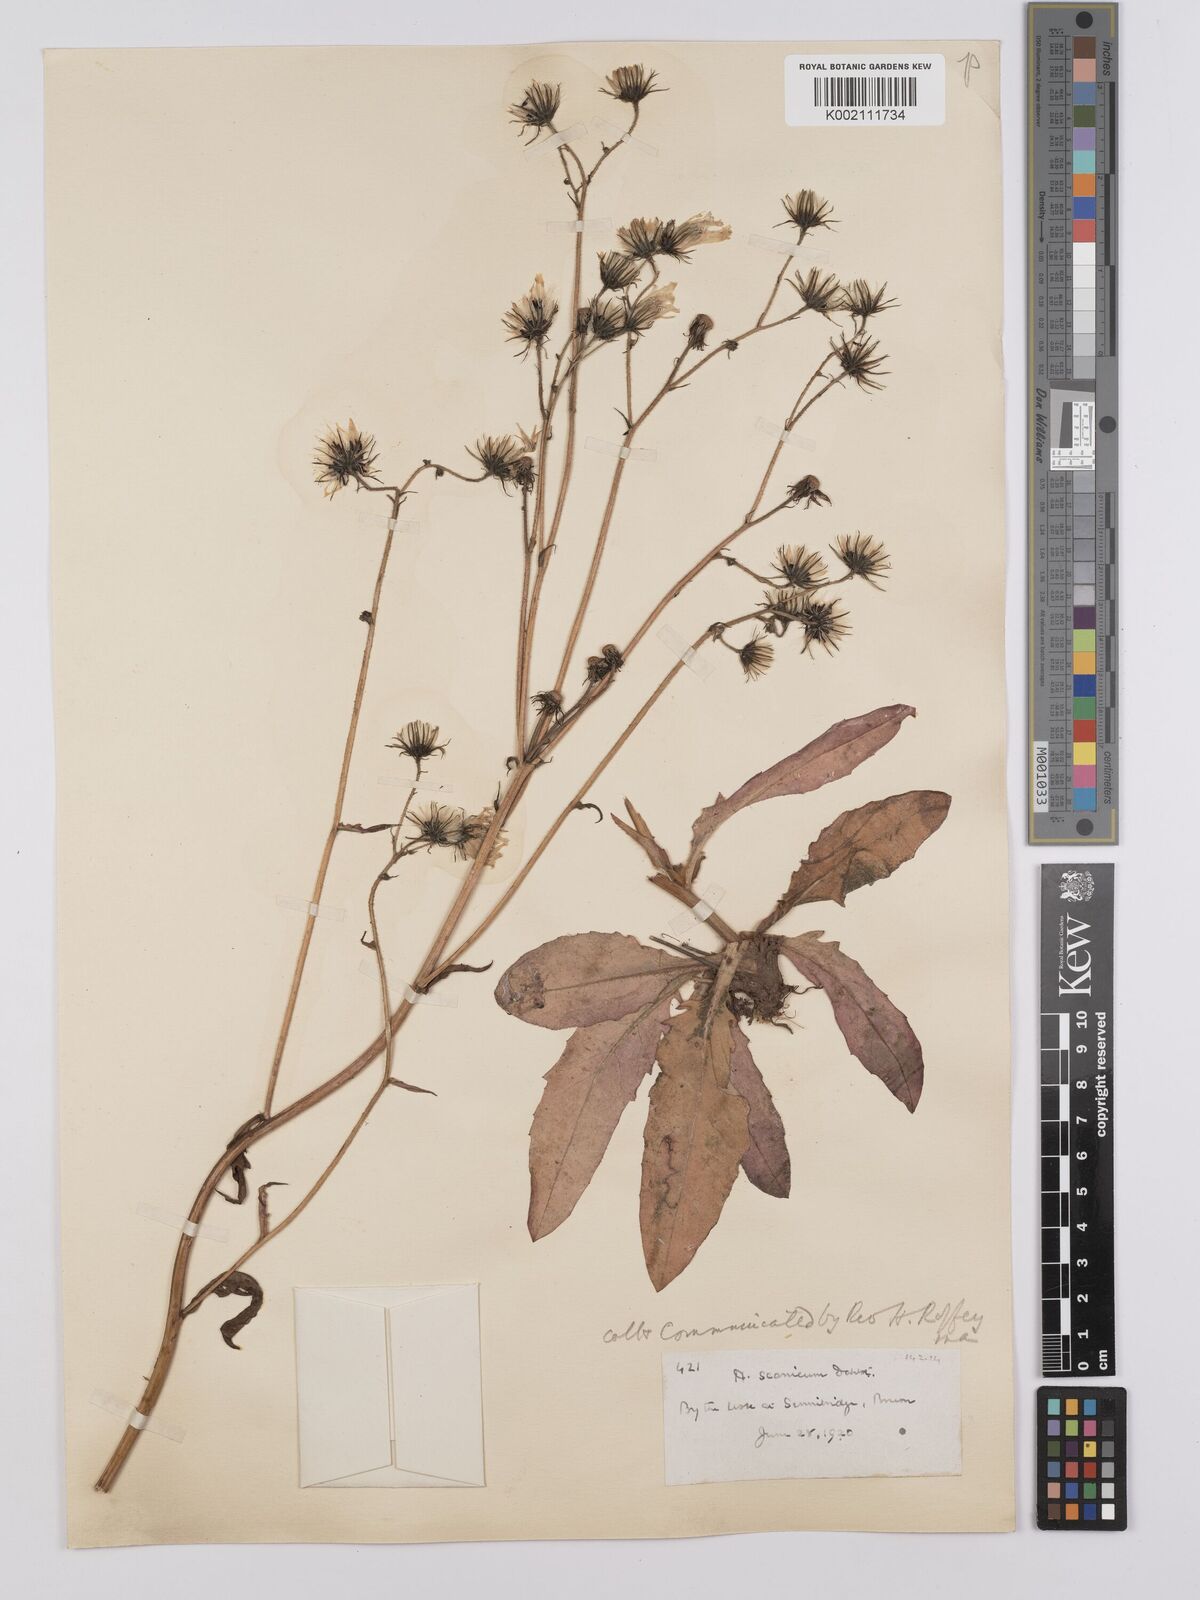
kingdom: Plantae
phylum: Tracheophyta
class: Magnoliopsida
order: Asterales
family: Asteraceae
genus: Hieracium
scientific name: Hieracium anglorum
